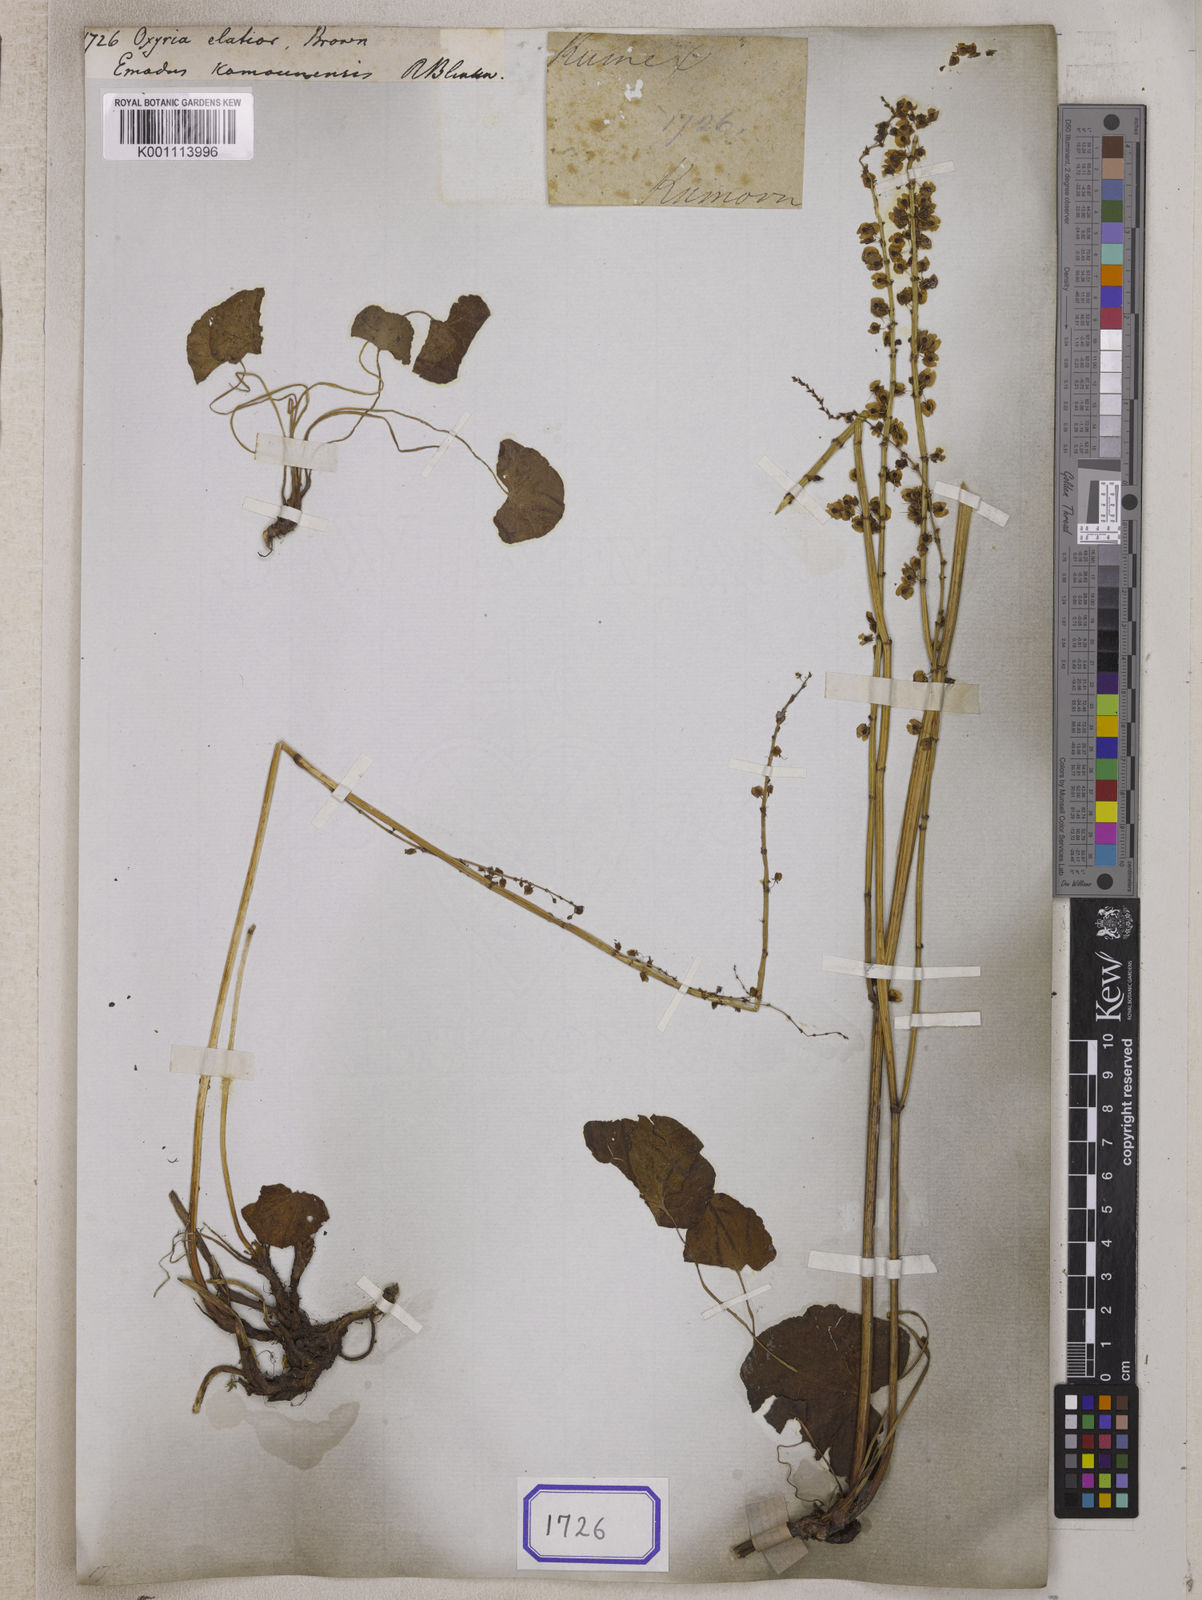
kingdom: Plantae
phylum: Tracheophyta
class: Magnoliopsida
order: Caryophyllales
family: Polygonaceae
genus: Oxyria
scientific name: Oxyria
